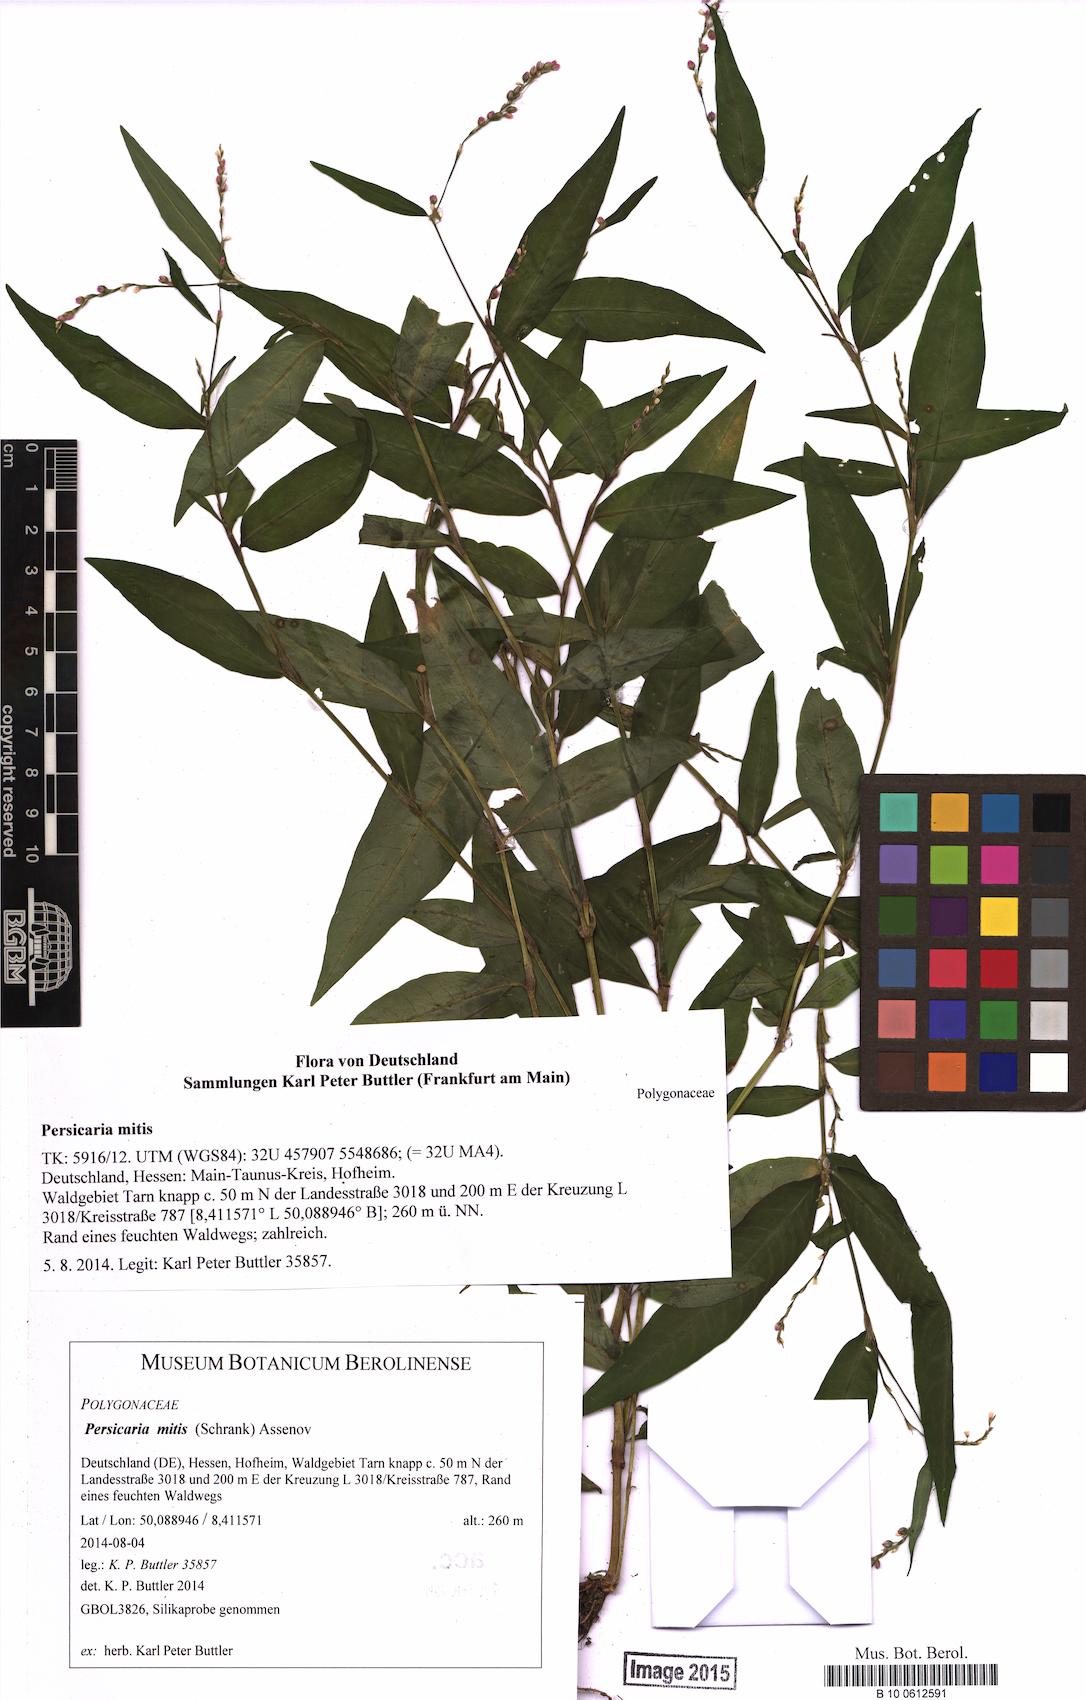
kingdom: Plantae
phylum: Tracheophyta
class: Magnoliopsida
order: Caryophyllales
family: Polygonaceae
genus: Persicaria
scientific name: Persicaria mitis
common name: Tasteless water-pepper
